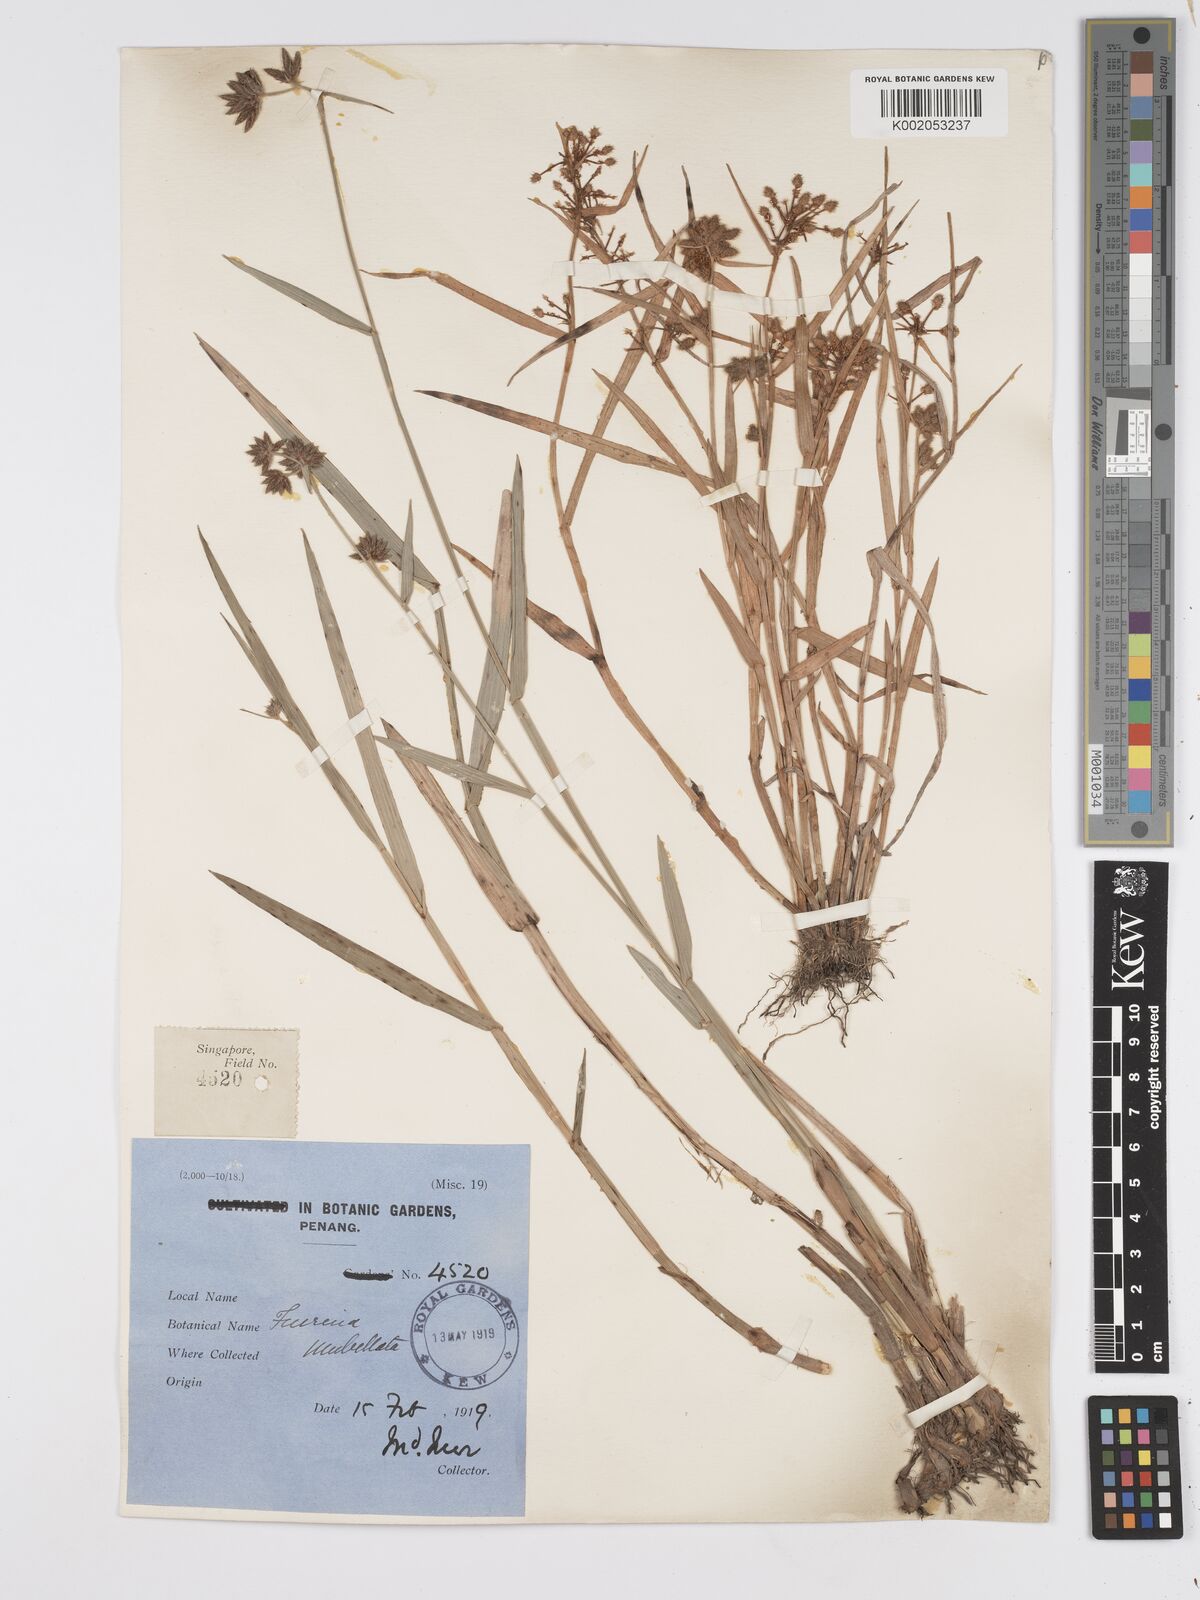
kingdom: Plantae
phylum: Tracheophyta
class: Liliopsida
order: Poales
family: Cyperaceae
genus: Fuirena
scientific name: Fuirena umbellata
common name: Yefen
